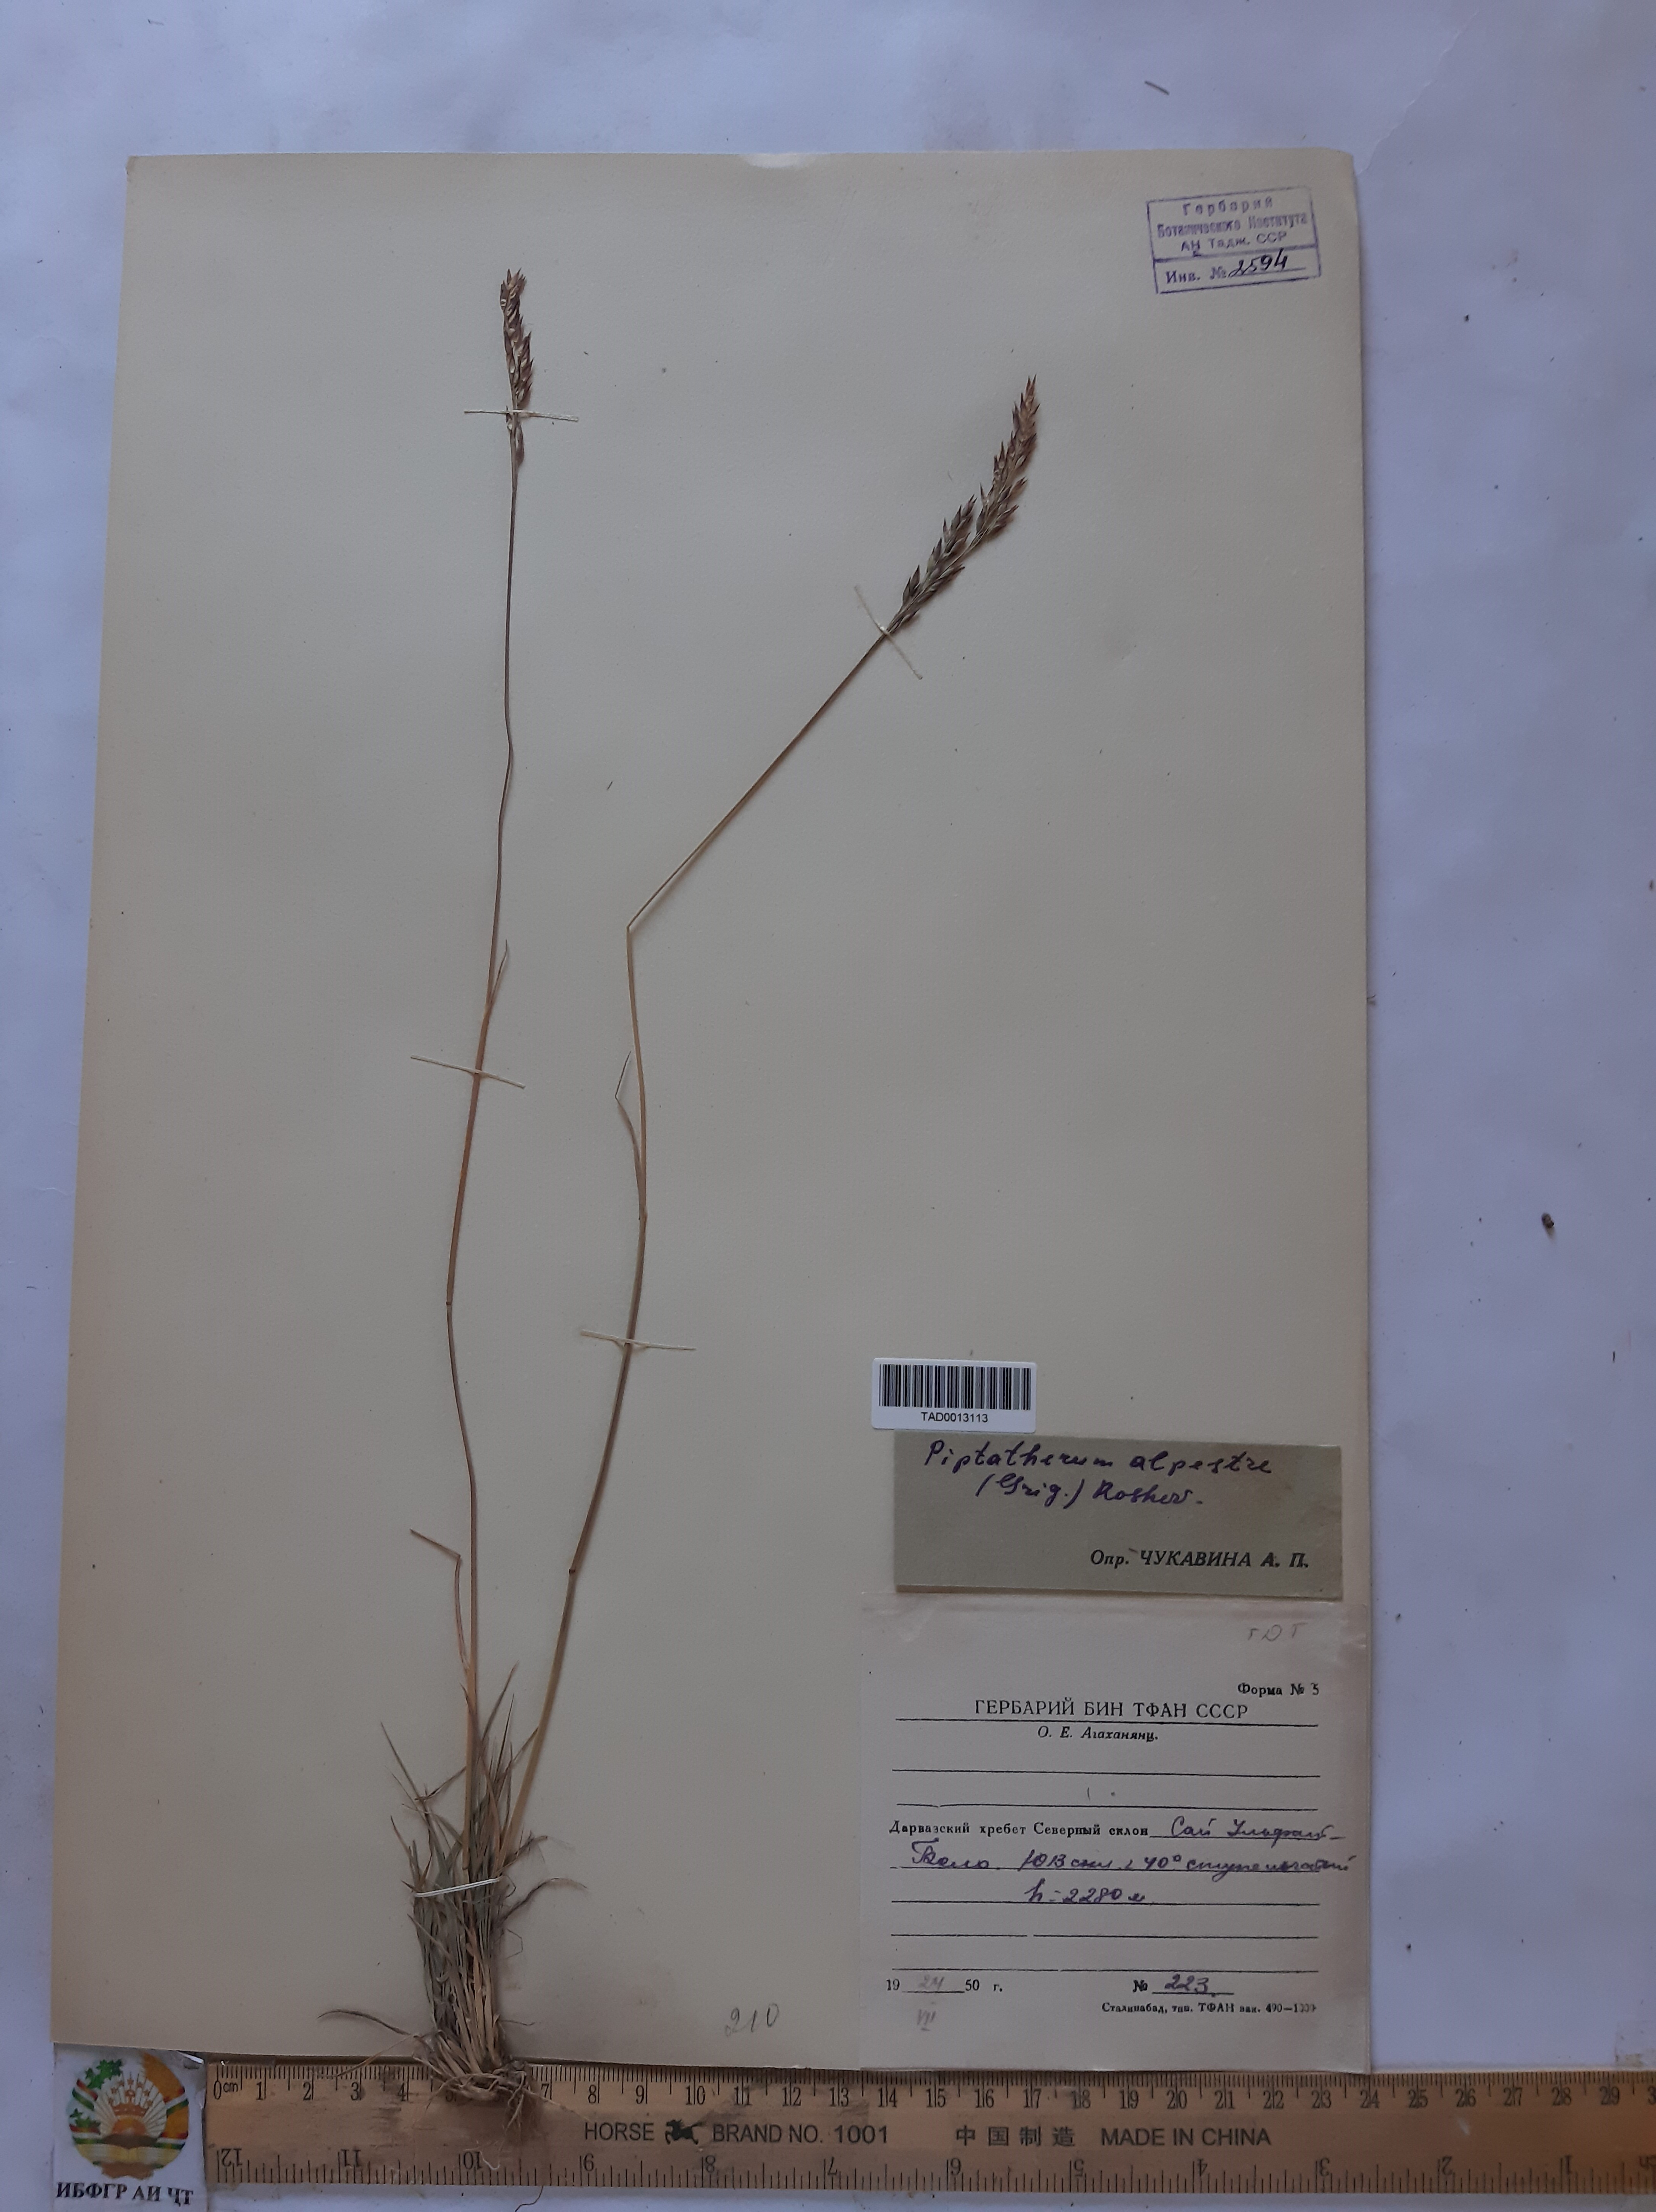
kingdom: Plantae
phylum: Tracheophyta
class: Liliopsida
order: Poales
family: Poaceae
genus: Piptatherum
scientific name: Piptatherum alpestre
